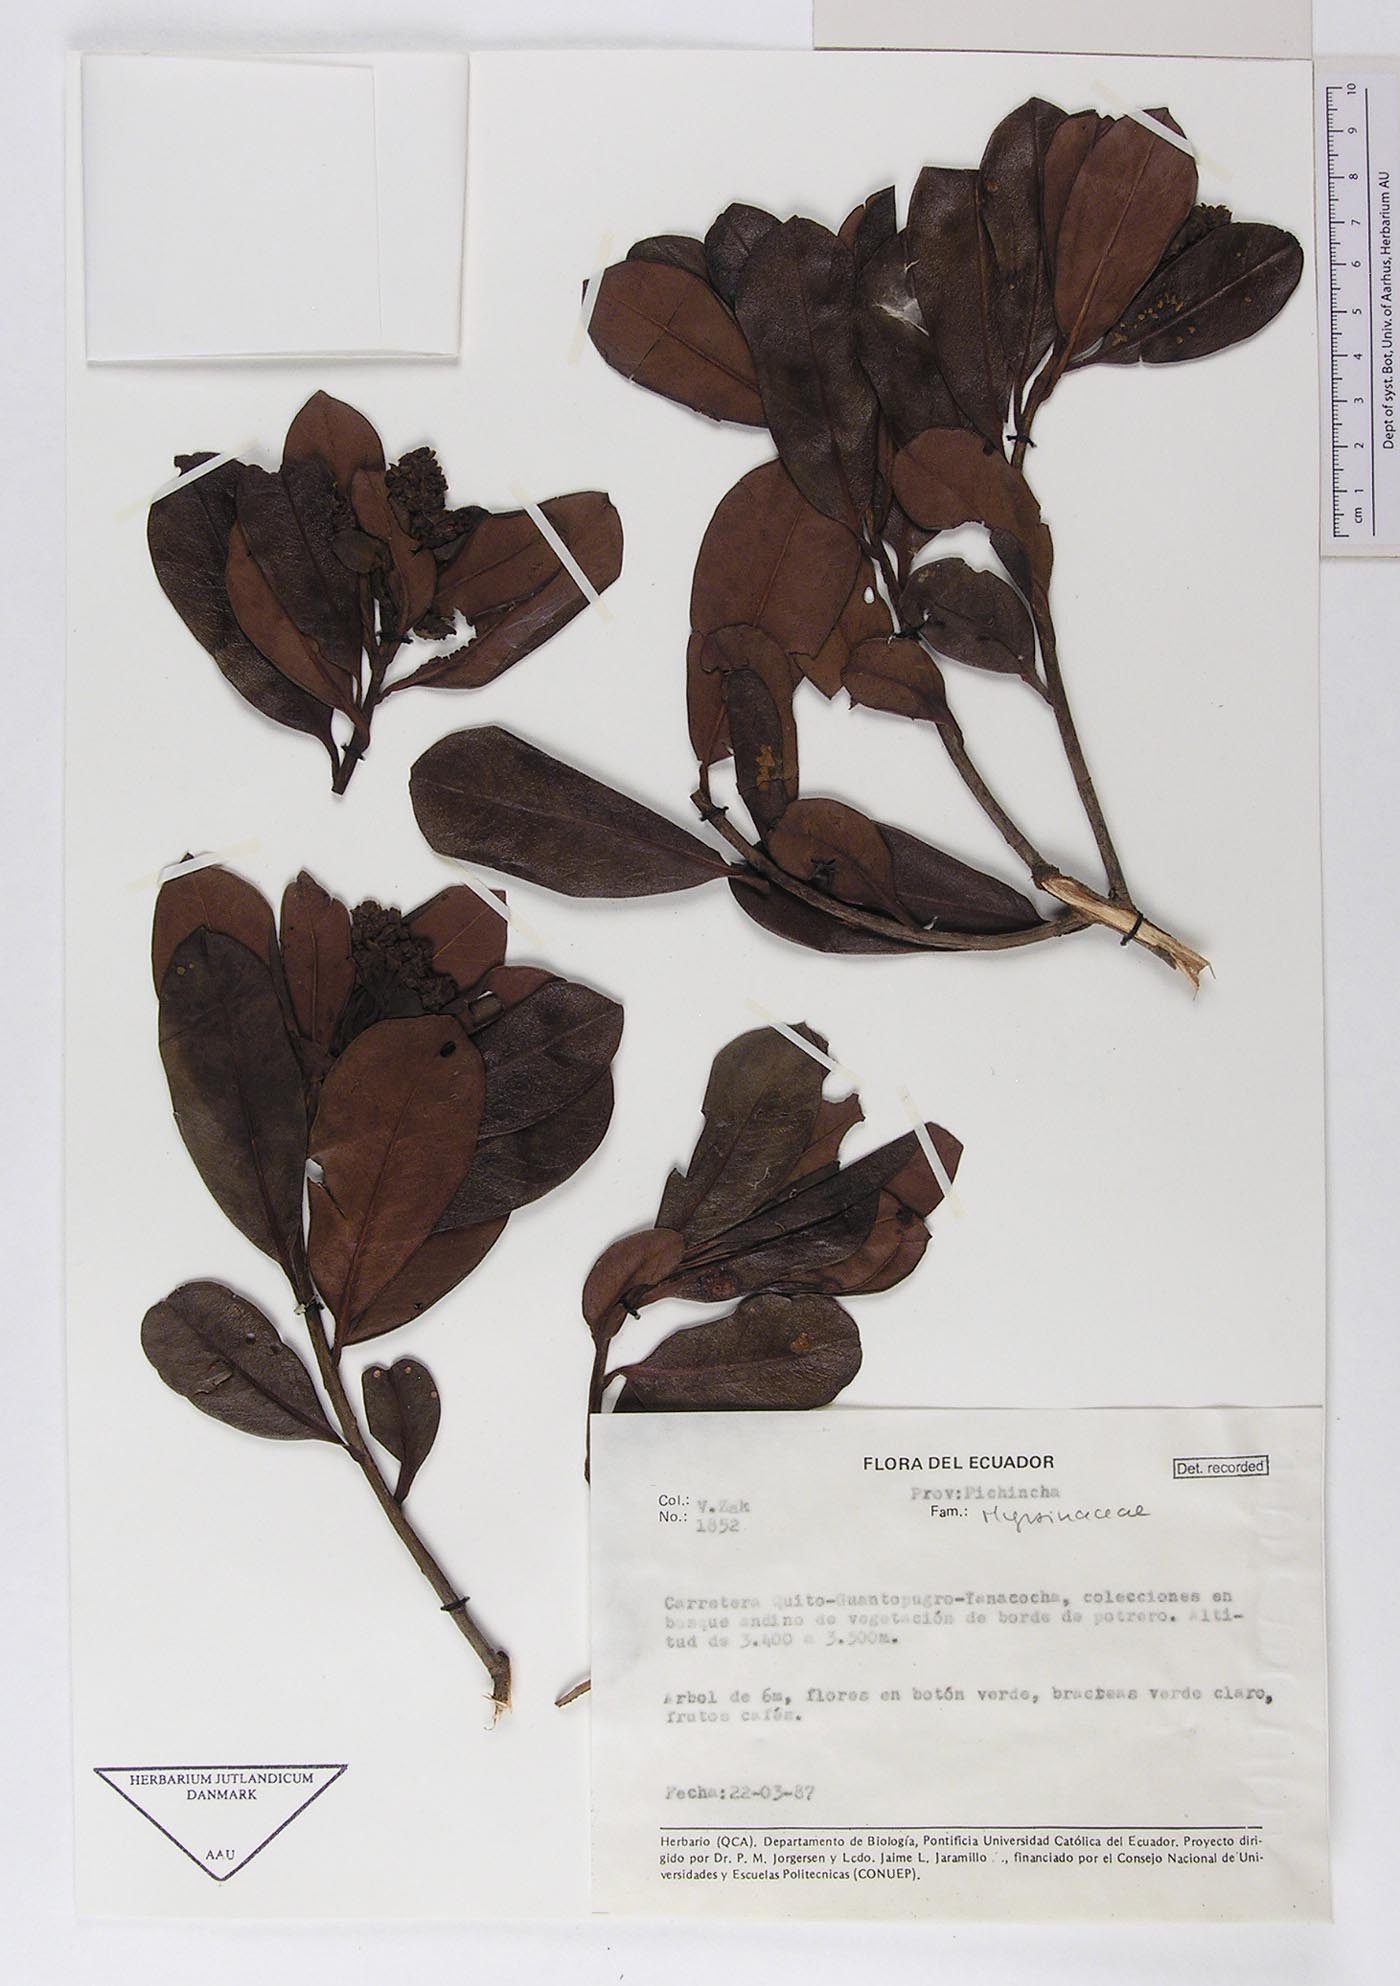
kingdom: Plantae
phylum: Tracheophyta
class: Magnoliopsida
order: Ericales
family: Primulaceae
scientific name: Primulaceae
